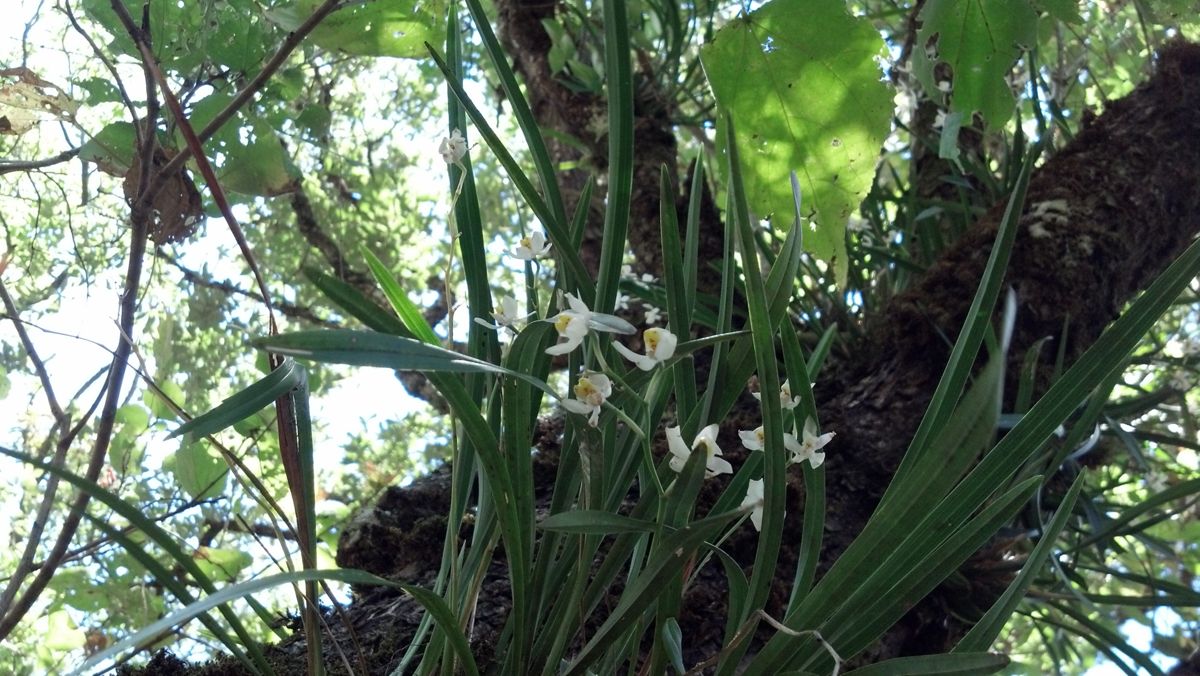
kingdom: Plantae
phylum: Tracheophyta
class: Liliopsida
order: Asparagales
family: Orchidaceae
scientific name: Orchidaceae
